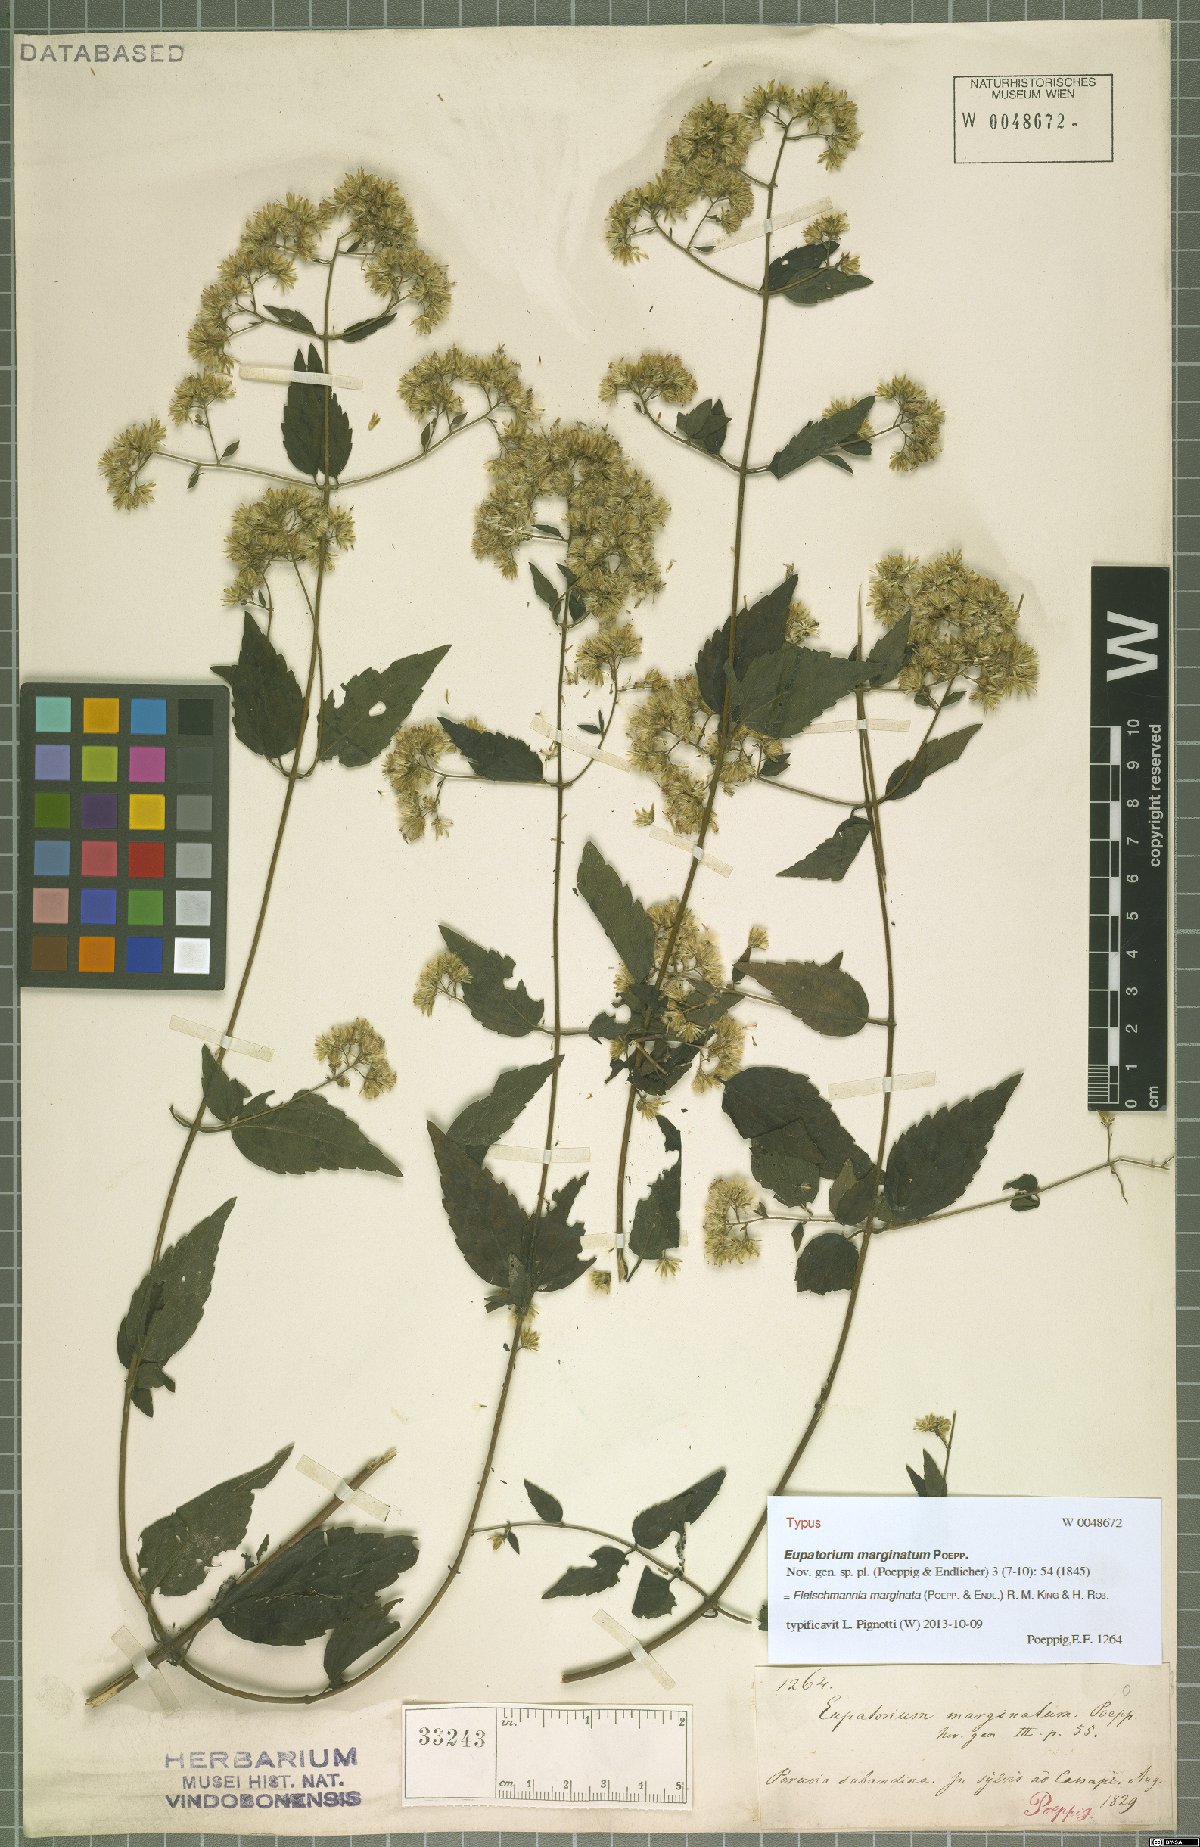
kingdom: Plantae
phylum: Tracheophyta
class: Magnoliopsida
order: Asterales
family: Asteraceae
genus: Fleischmannia
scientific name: Fleischmannia marginata
